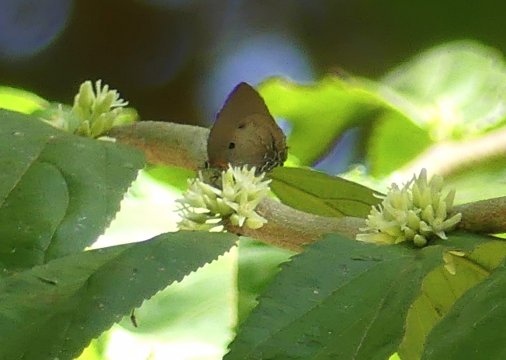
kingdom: Animalia
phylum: Arthropoda
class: Insecta
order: Lepidoptera
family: Lycaenidae
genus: Olynthus
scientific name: Olynthus narbal
